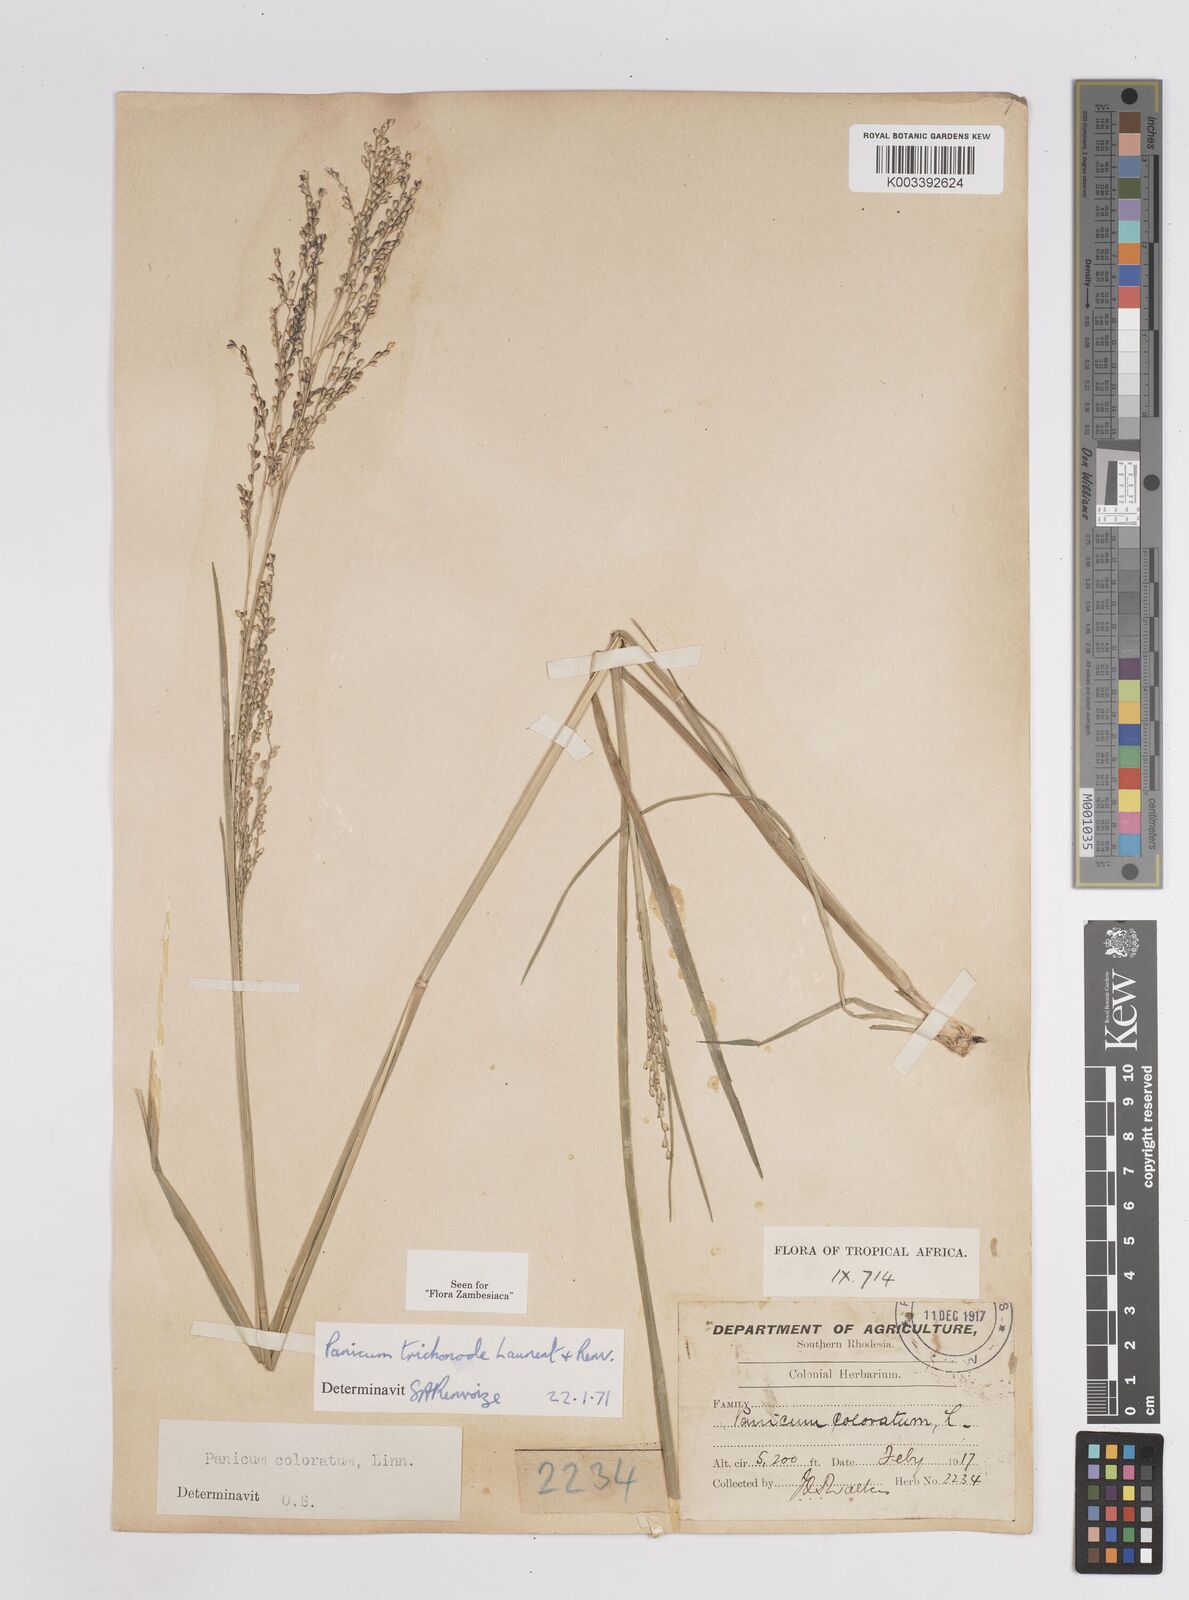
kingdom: Plantae
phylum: Tracheophyta
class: Liliopsida
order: Poales
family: Poaceae
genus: Panicum
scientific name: Panicum trichonode
